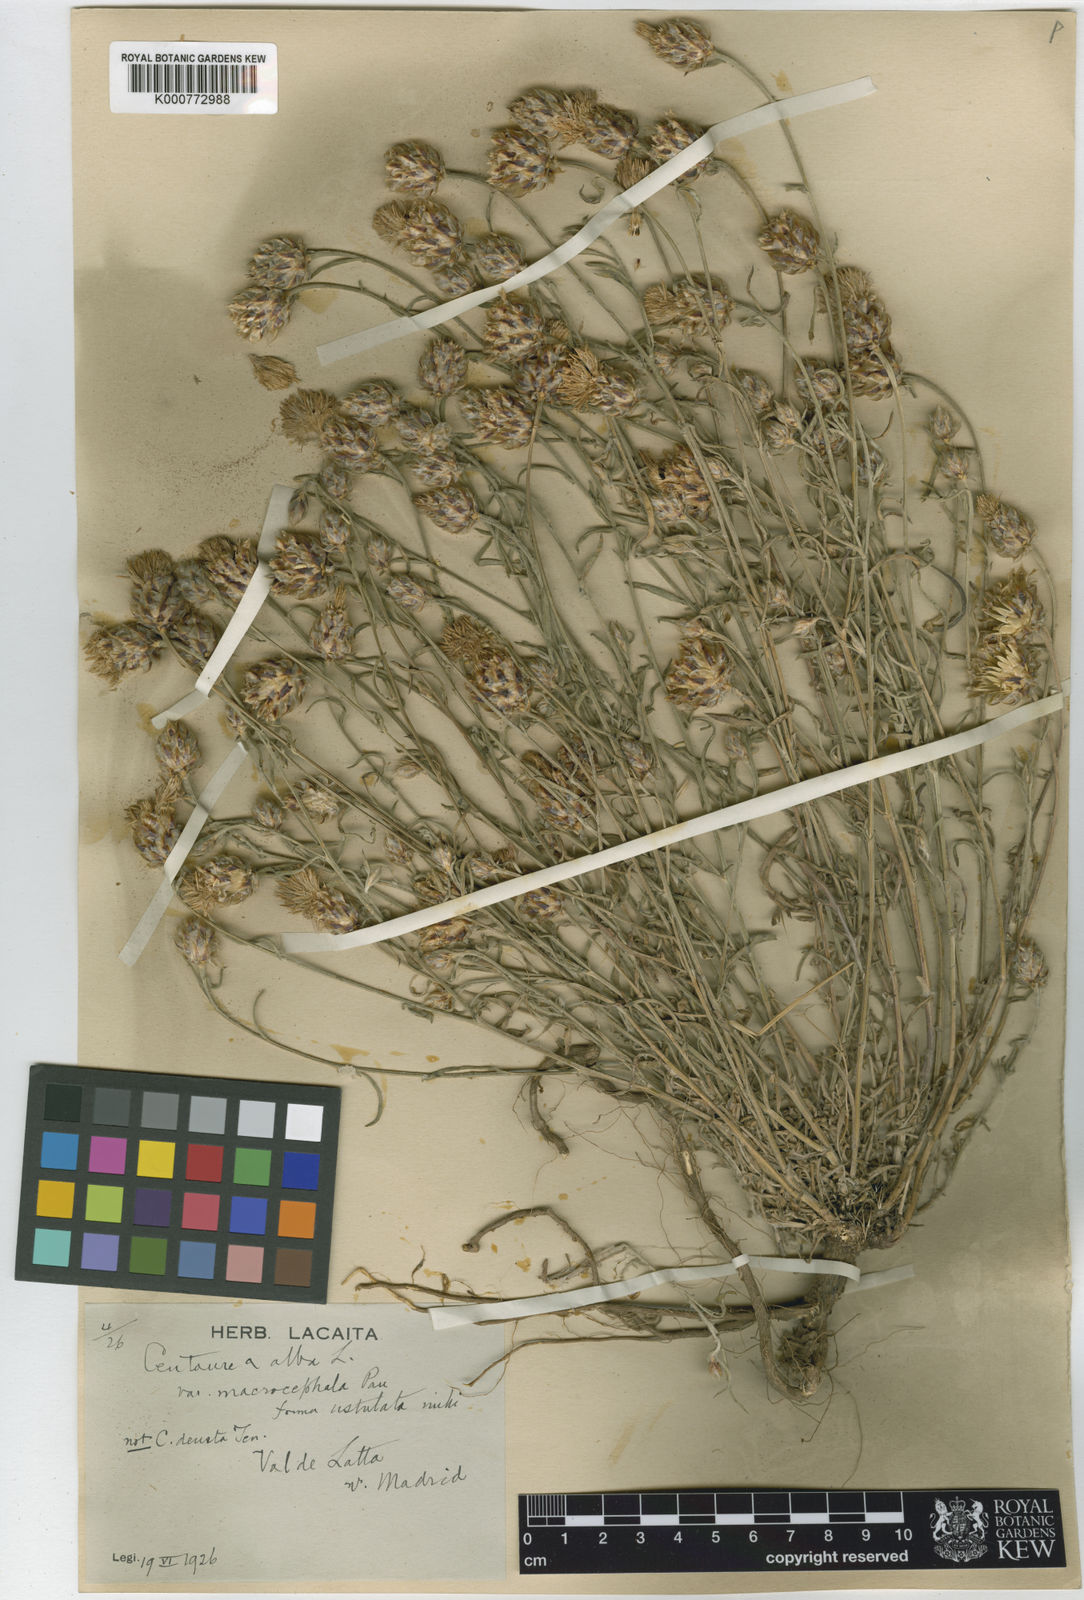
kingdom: Plantae
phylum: Tracheophyta
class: Magnoliopsida
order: Asterales
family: Asteraceae
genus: Centaurea
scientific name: Centaurea alba
